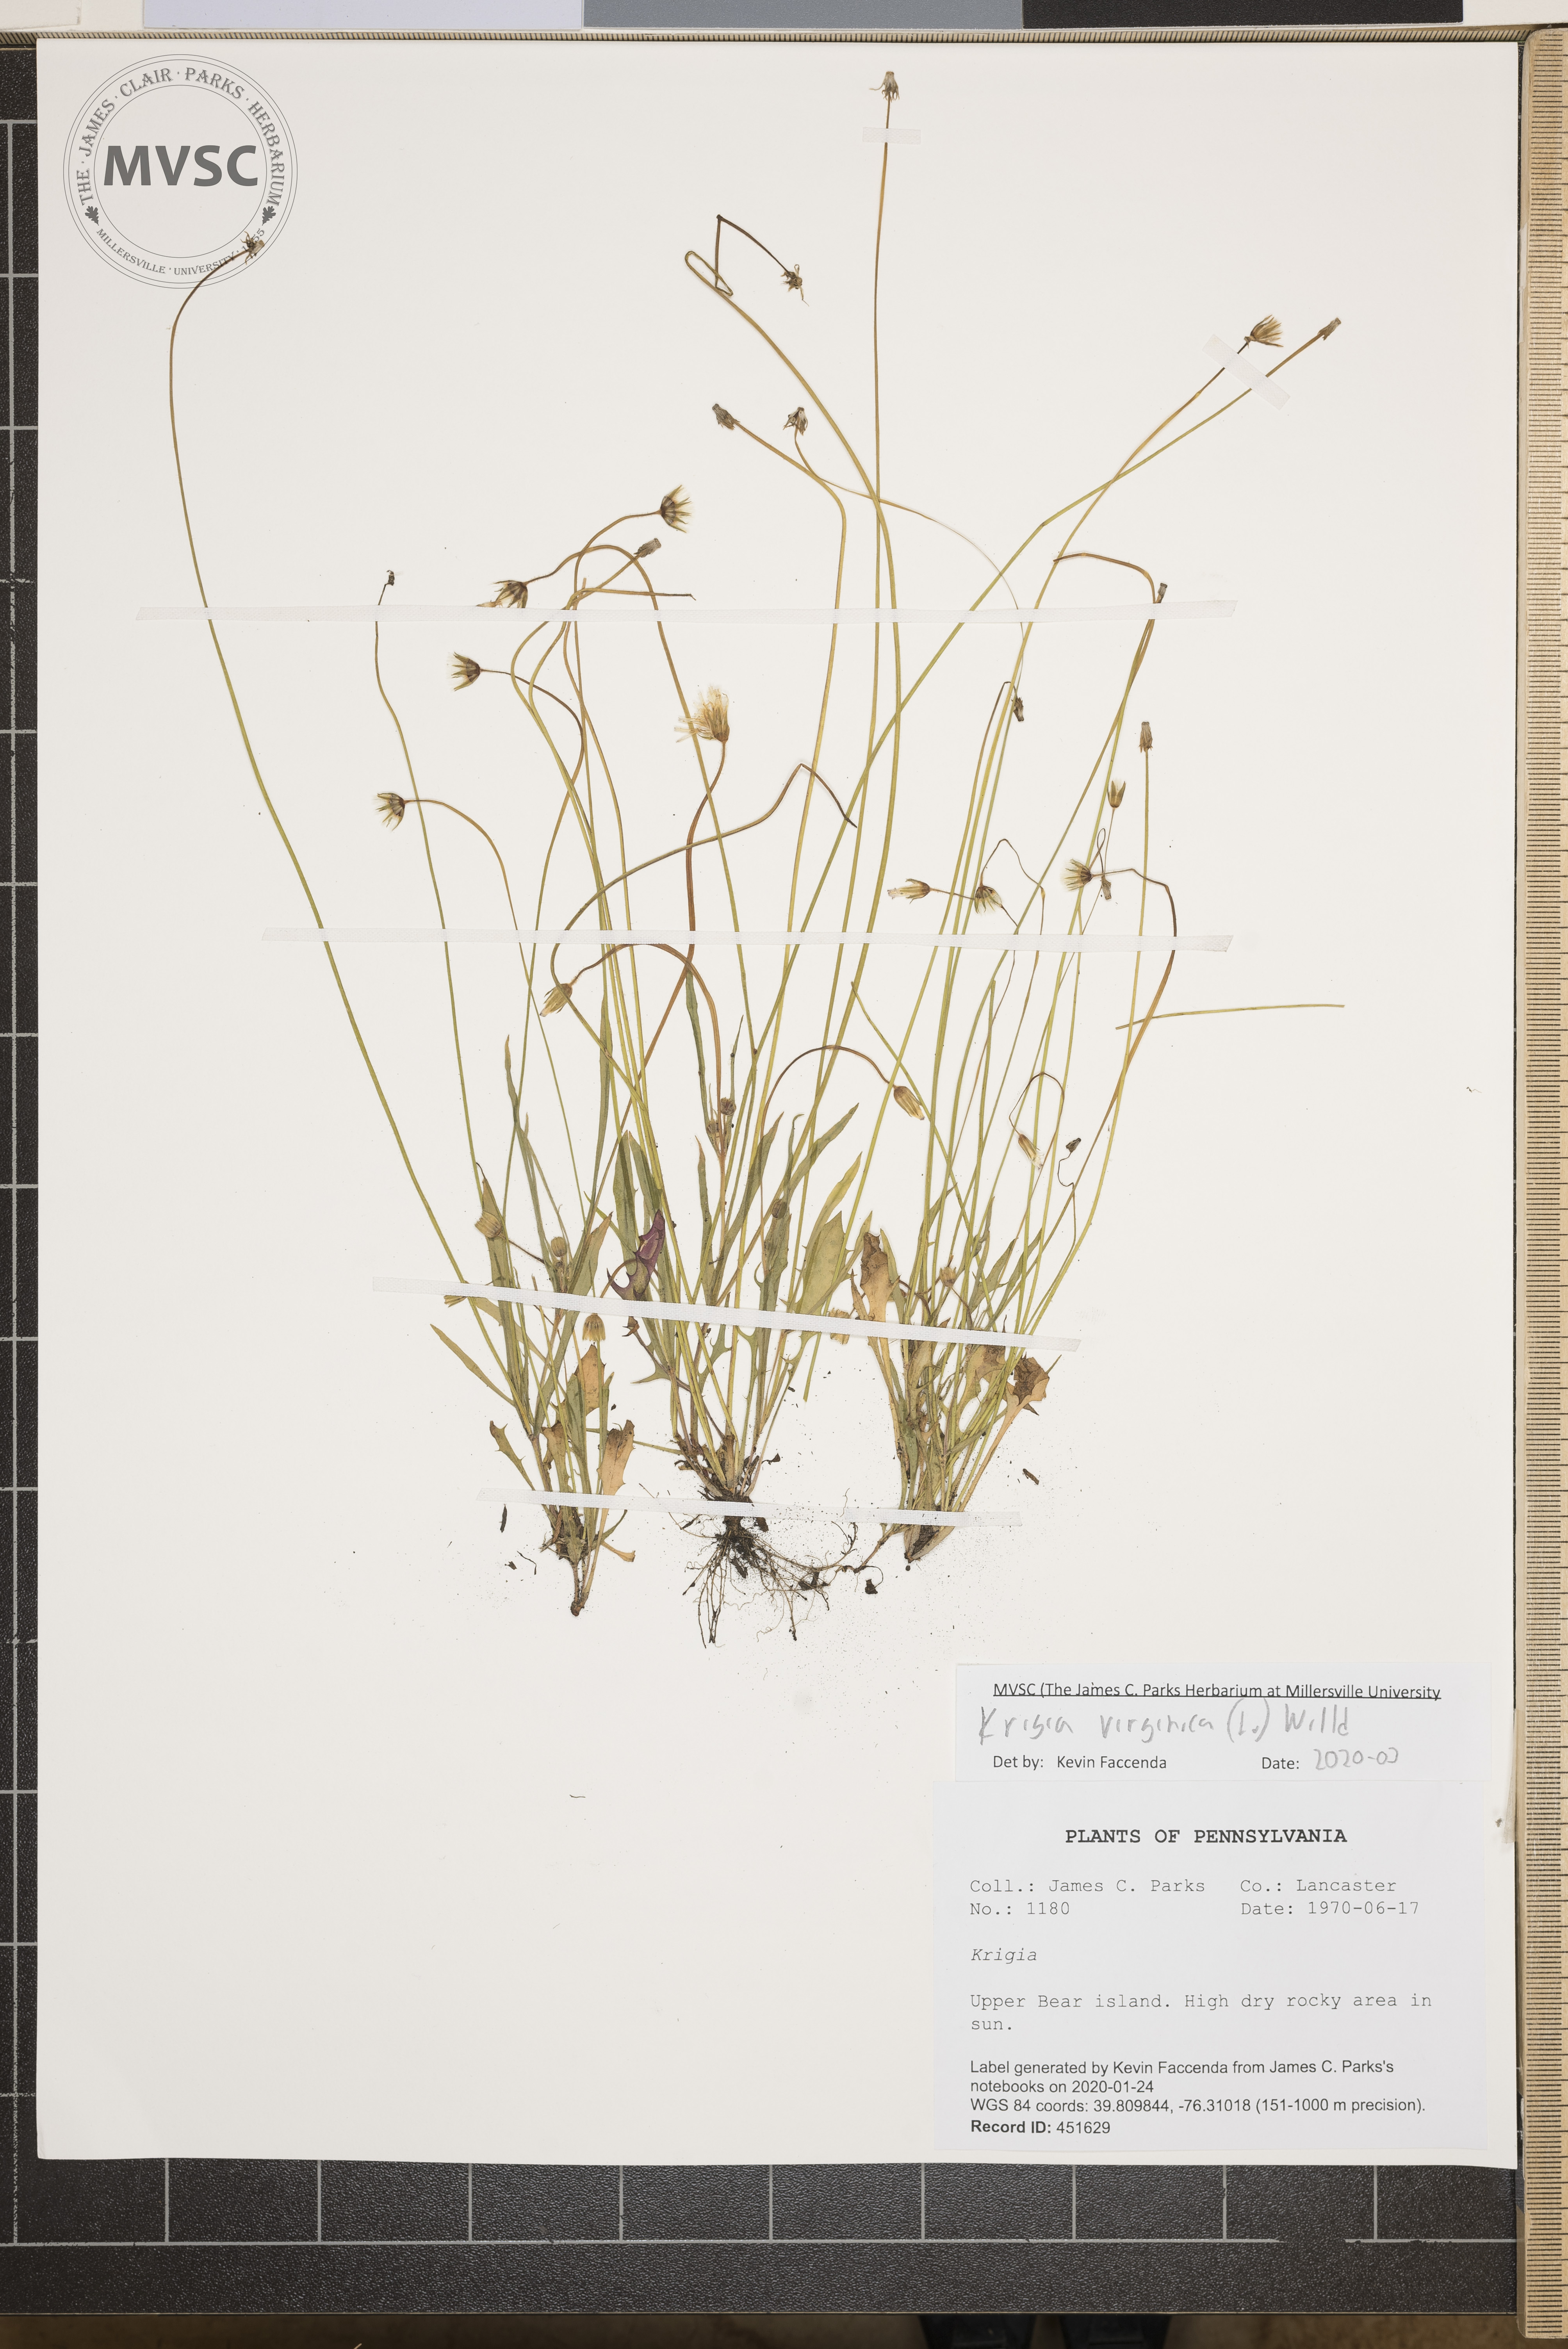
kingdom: Plantae
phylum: Tracheophyta
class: Magnoliopsida
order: Asterales
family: Asteraceae
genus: Krigia
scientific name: Krigia virginica
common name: Virginia dwarf-dandelion
